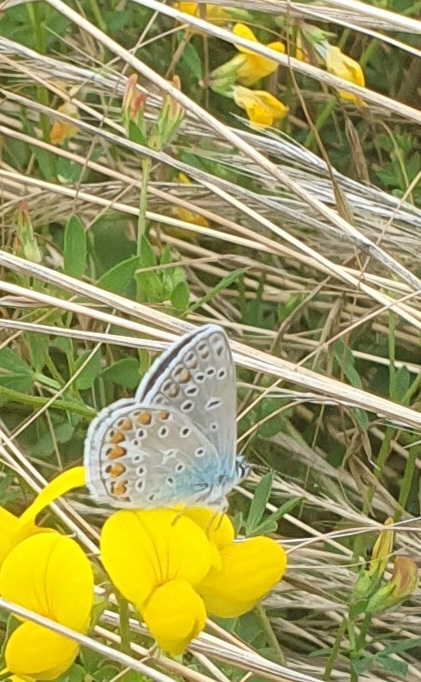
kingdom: Animalia
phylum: Arthropoda
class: Insecta
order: Lepidoptera
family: Lycaenidae
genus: Polyommatus
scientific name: Polyommatus icarus
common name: Almindelig blåfugl
